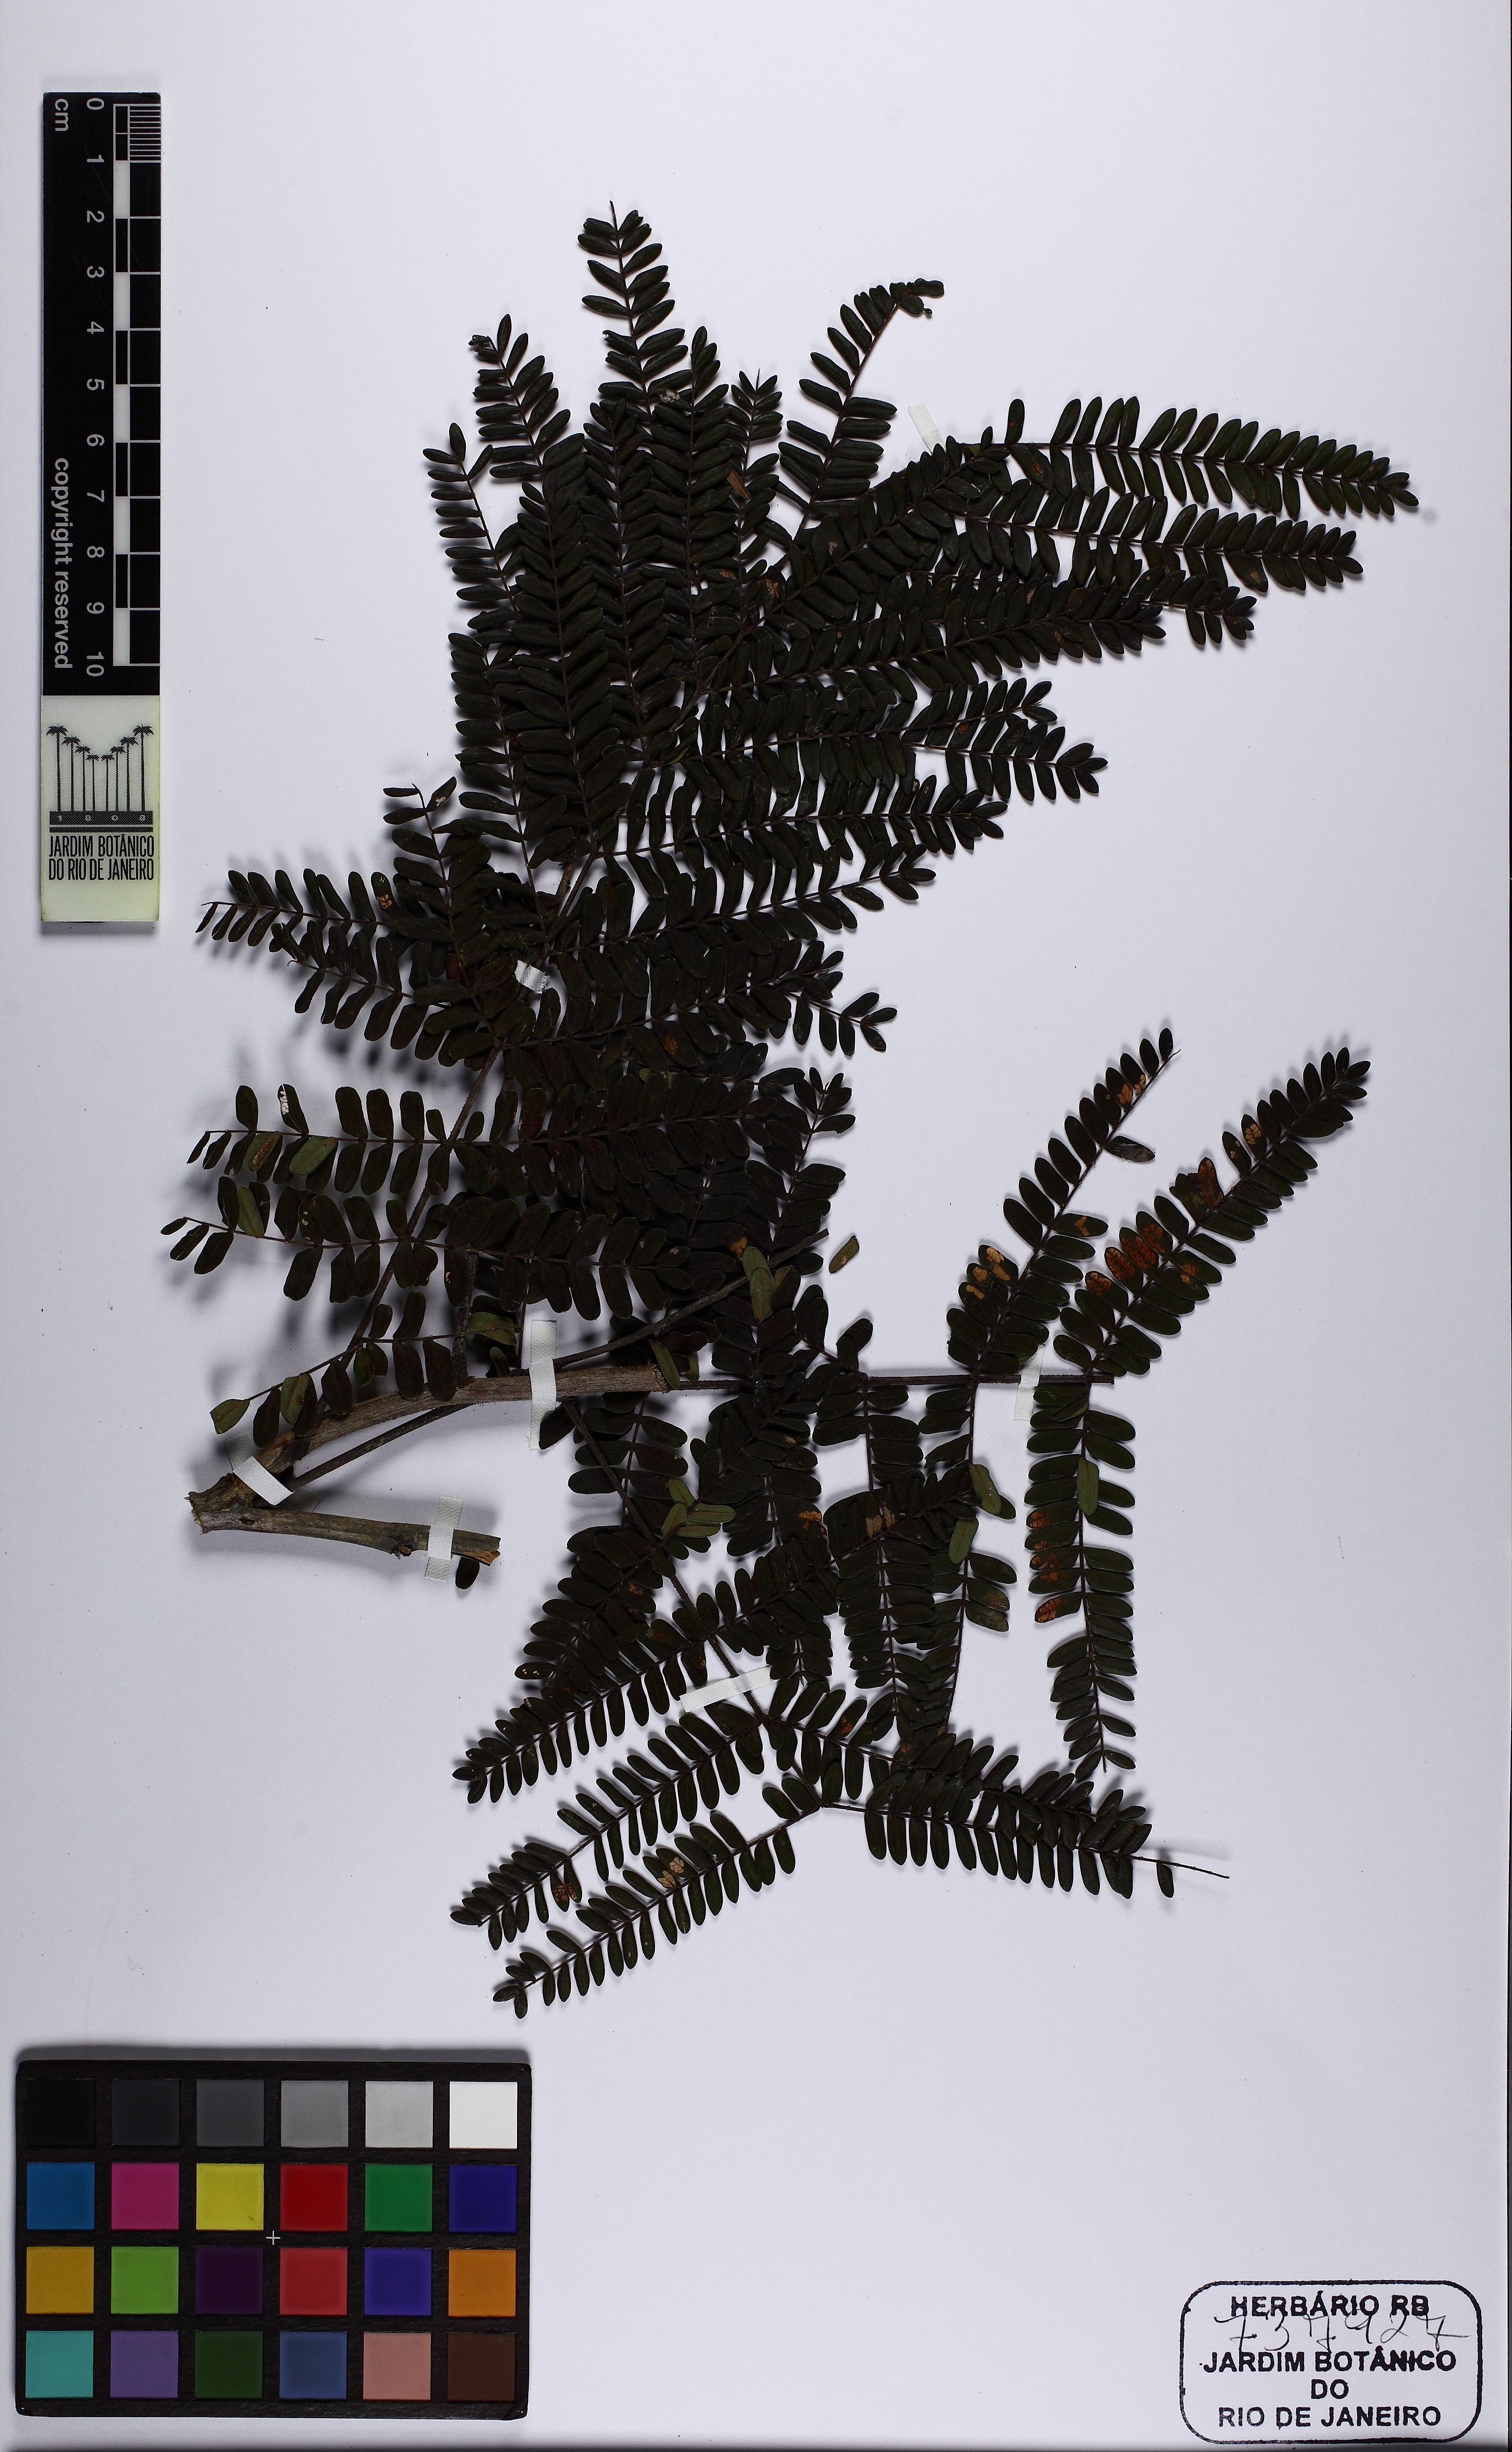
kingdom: Plantae
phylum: Tracheophyta
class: Magnoliopsida
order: Fabales
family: Fabaceae
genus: Peltophorum
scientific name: Peltophorum dubium
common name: Horsebush
